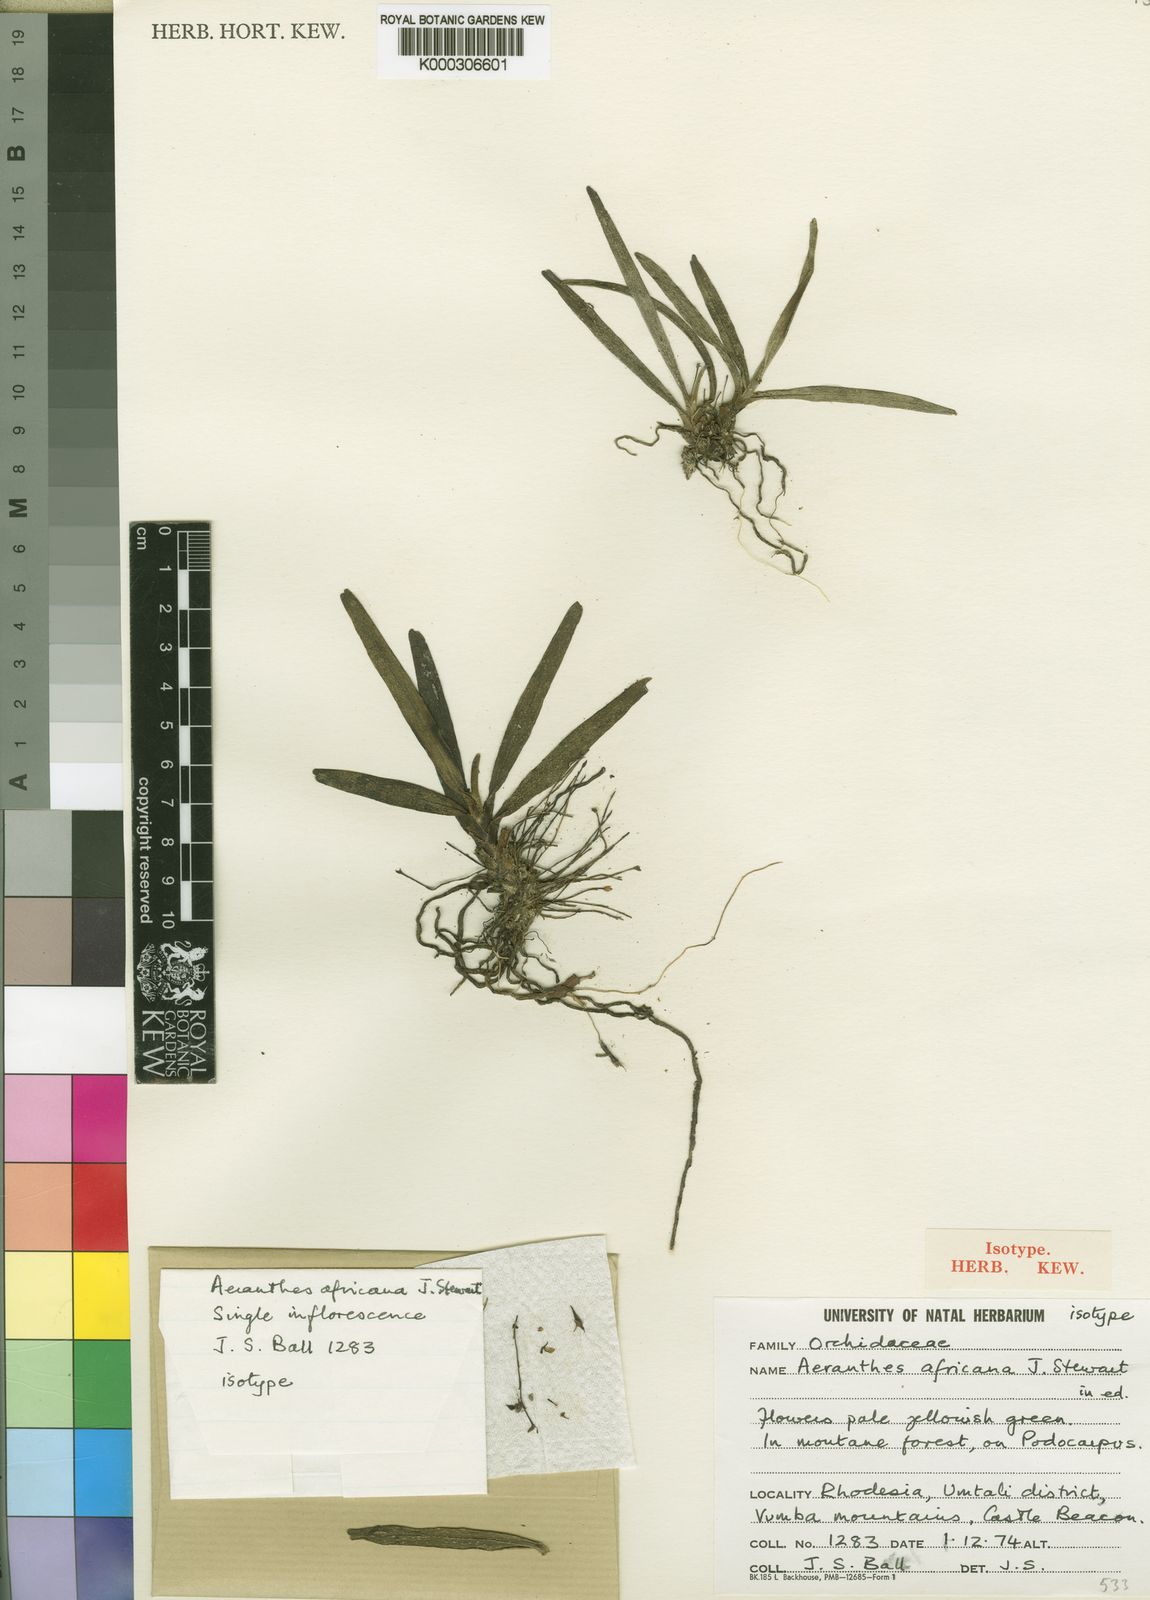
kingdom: Plantae
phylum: Tracheophyta
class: Liliopsida
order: Asparagales
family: Orchidaceae
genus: Aeranthes
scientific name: Aeranthes africana
